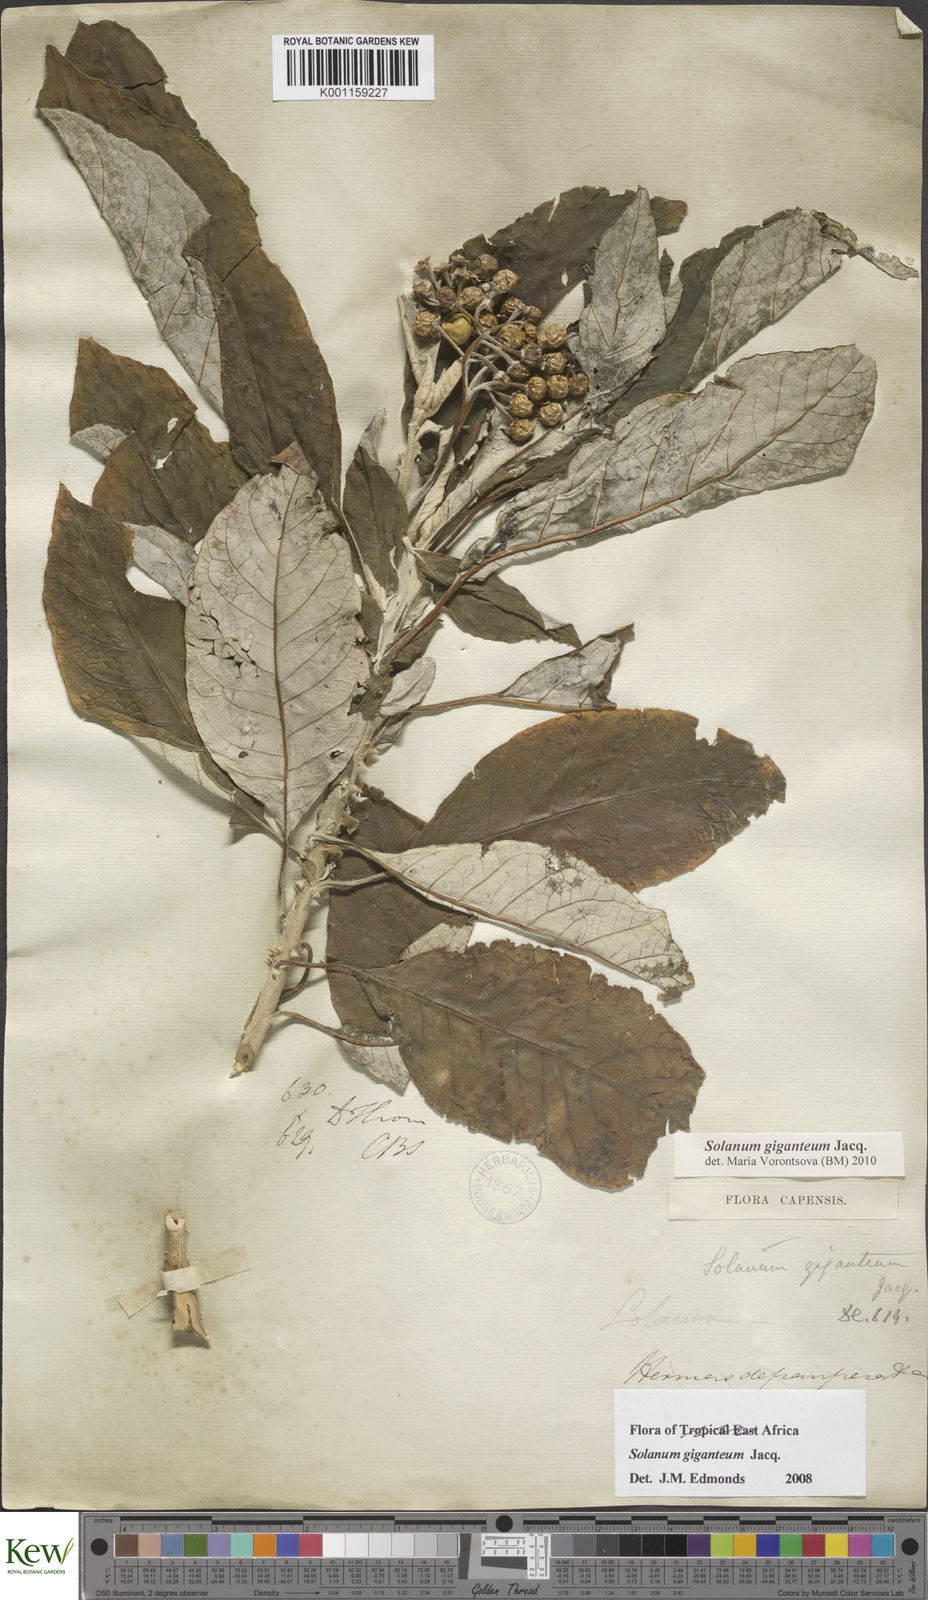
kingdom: Plantae
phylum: Tracheophyta
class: Magnoliopsida
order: Solanales
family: Solanaceae
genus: Solanum
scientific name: Solanum giganteum
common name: Healing-leaf-tree
